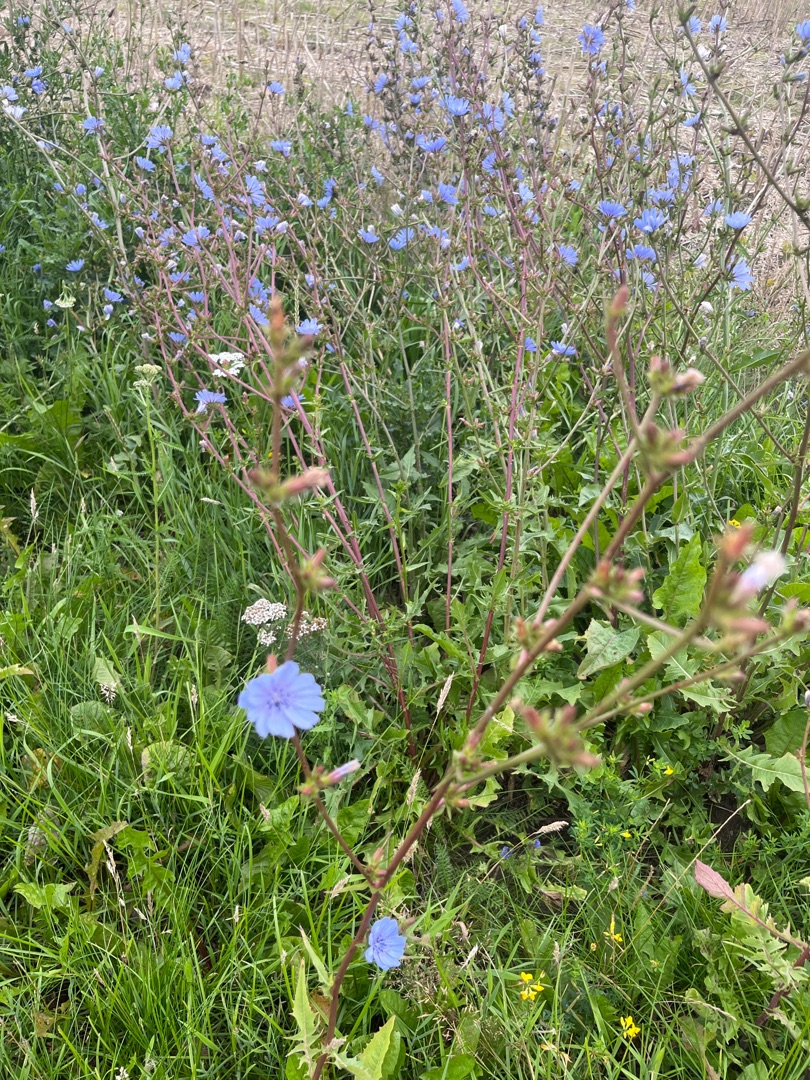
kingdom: Plantae
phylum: Tracheophyta
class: Magnoliopsida
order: Asterales
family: Asteraceae
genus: Cichorium
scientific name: Cichorium intybus
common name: Cikorie
